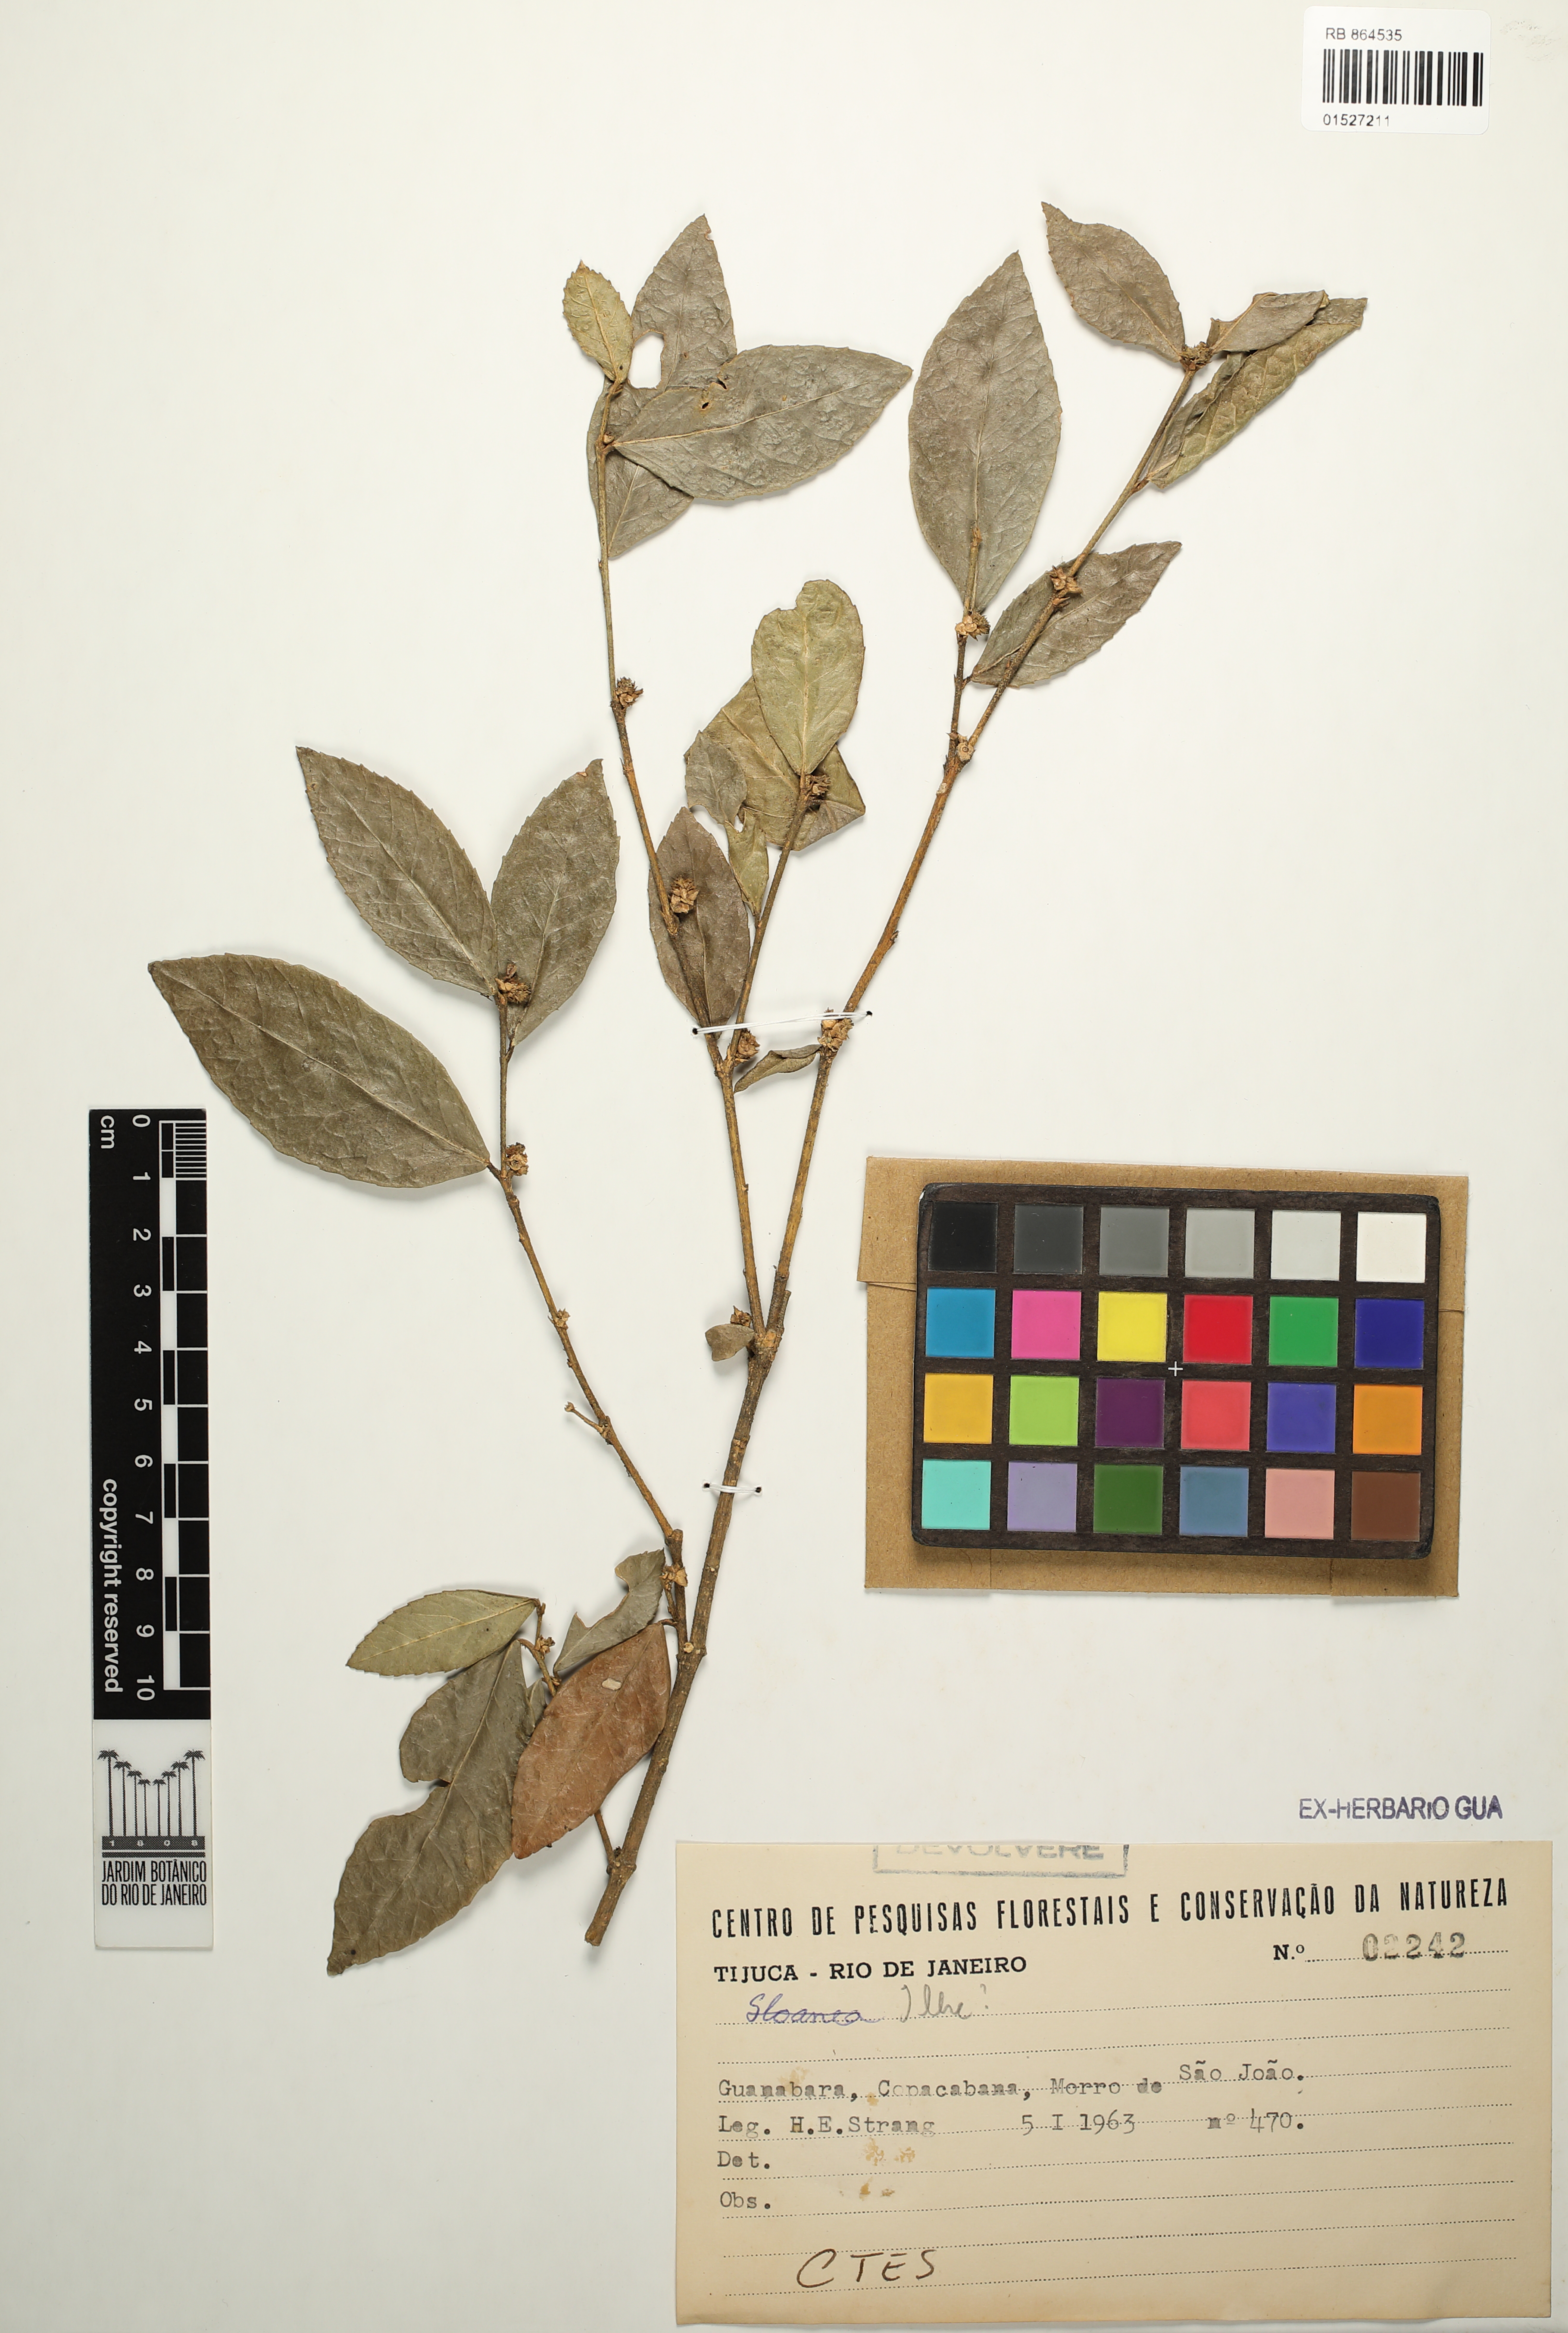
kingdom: Plantae
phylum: Tracheophyta
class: Magnoliopsida
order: Aquifoliales
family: Aquifoliaceae
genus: Ilex
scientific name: Ilex
